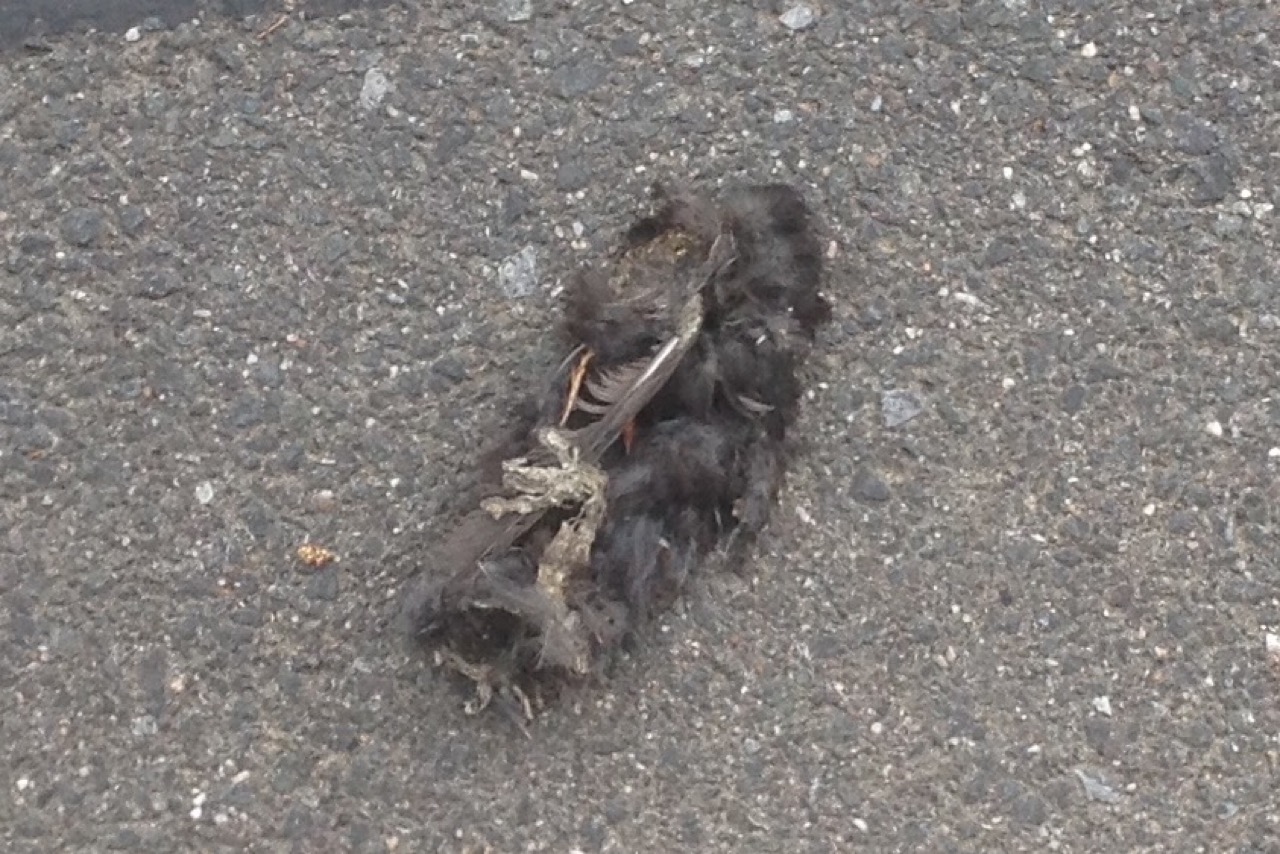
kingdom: Animalia
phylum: Chordata
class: Aves
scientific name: Aves
